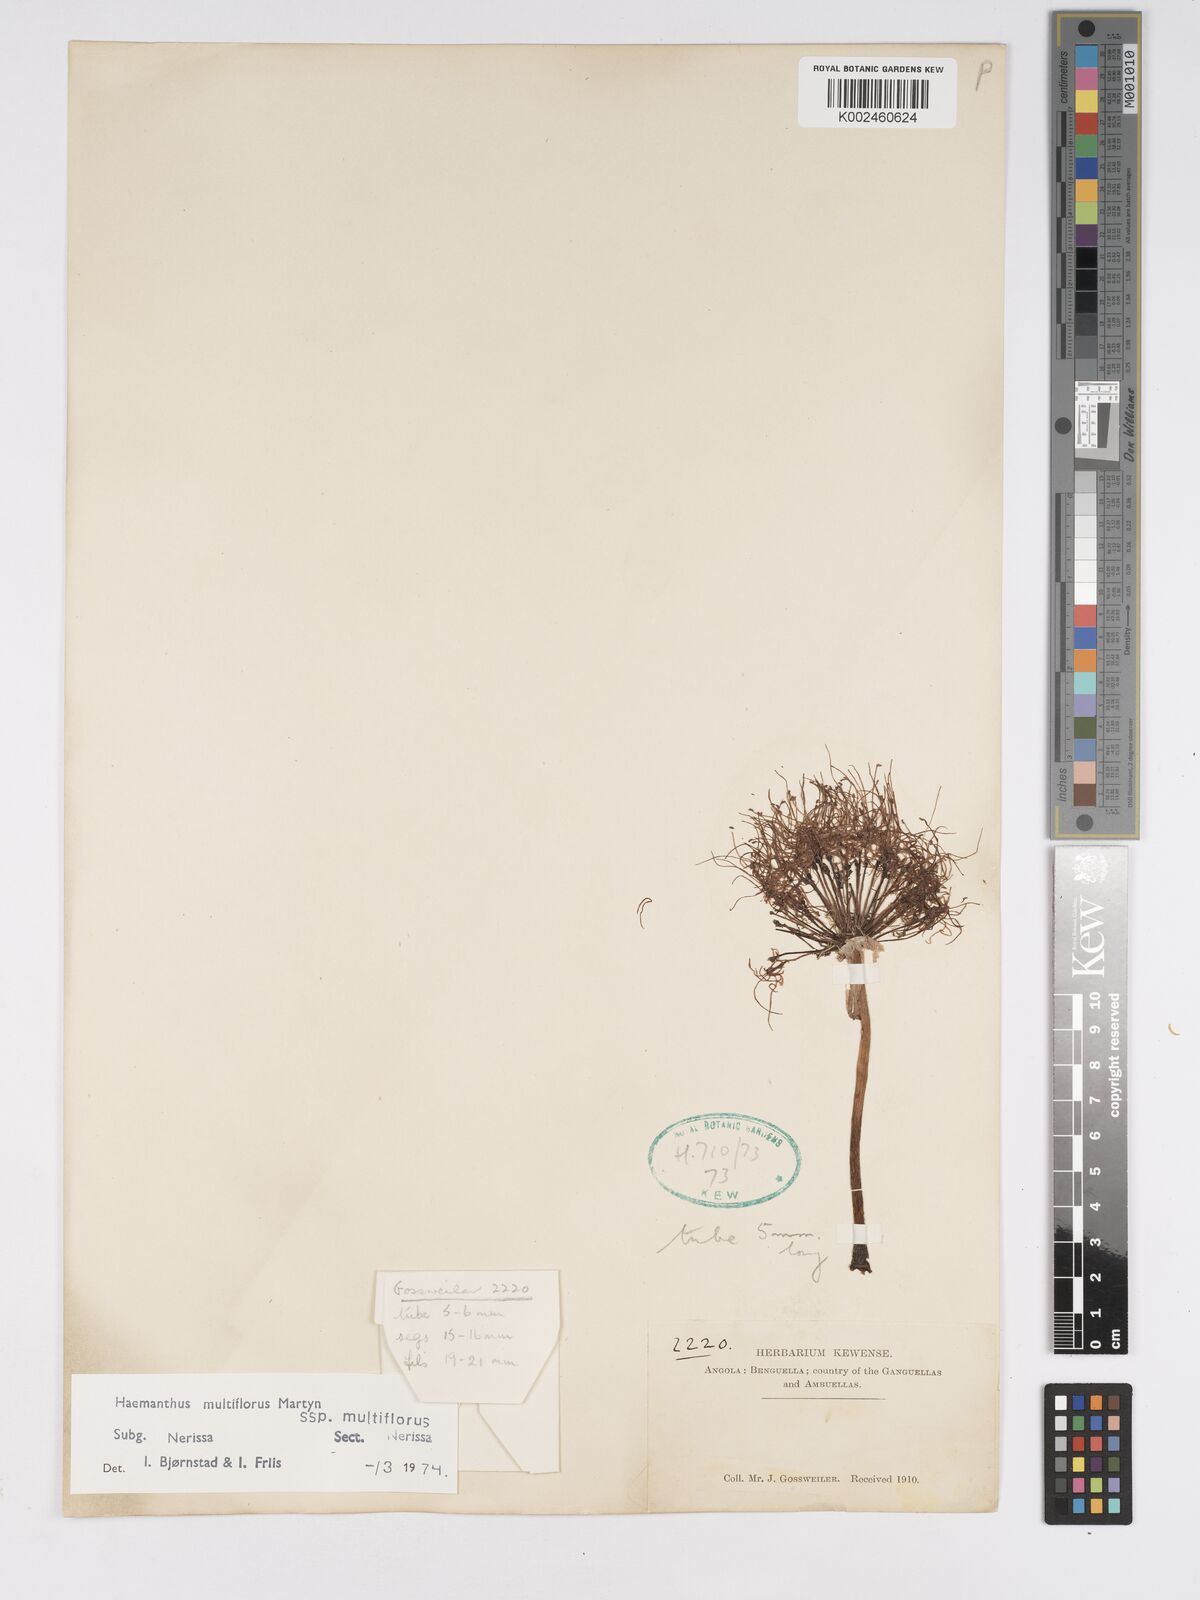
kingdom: Plantae
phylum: Tracheophyta
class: Liliopsida
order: Asparagales
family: Amaryllidaceae
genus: Scadoxus
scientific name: Scadoxus multiflorus
